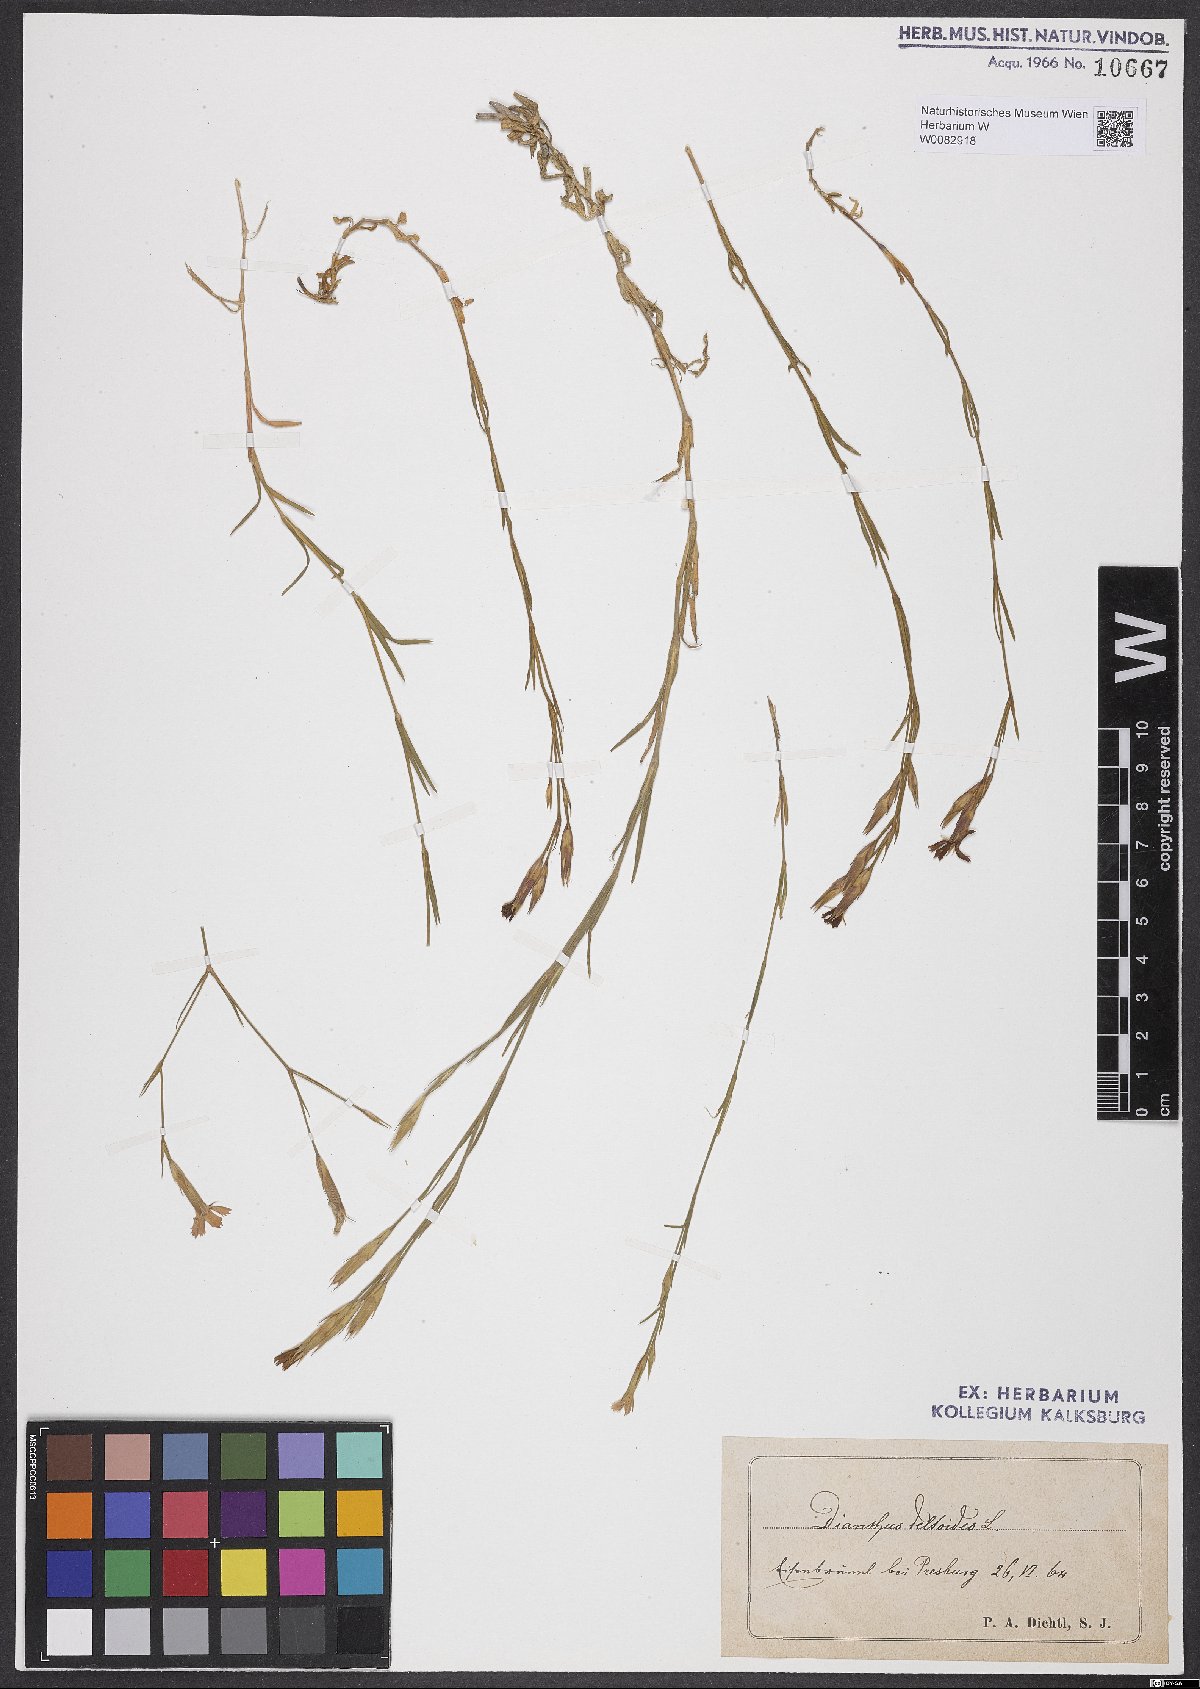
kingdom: Plantae
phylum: Tracheophyta
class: Magnoliopsida
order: Caryophyllales
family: Caryophyllaceae
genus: Dianthus
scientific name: Dianthus deltoides
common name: Maiden pink
